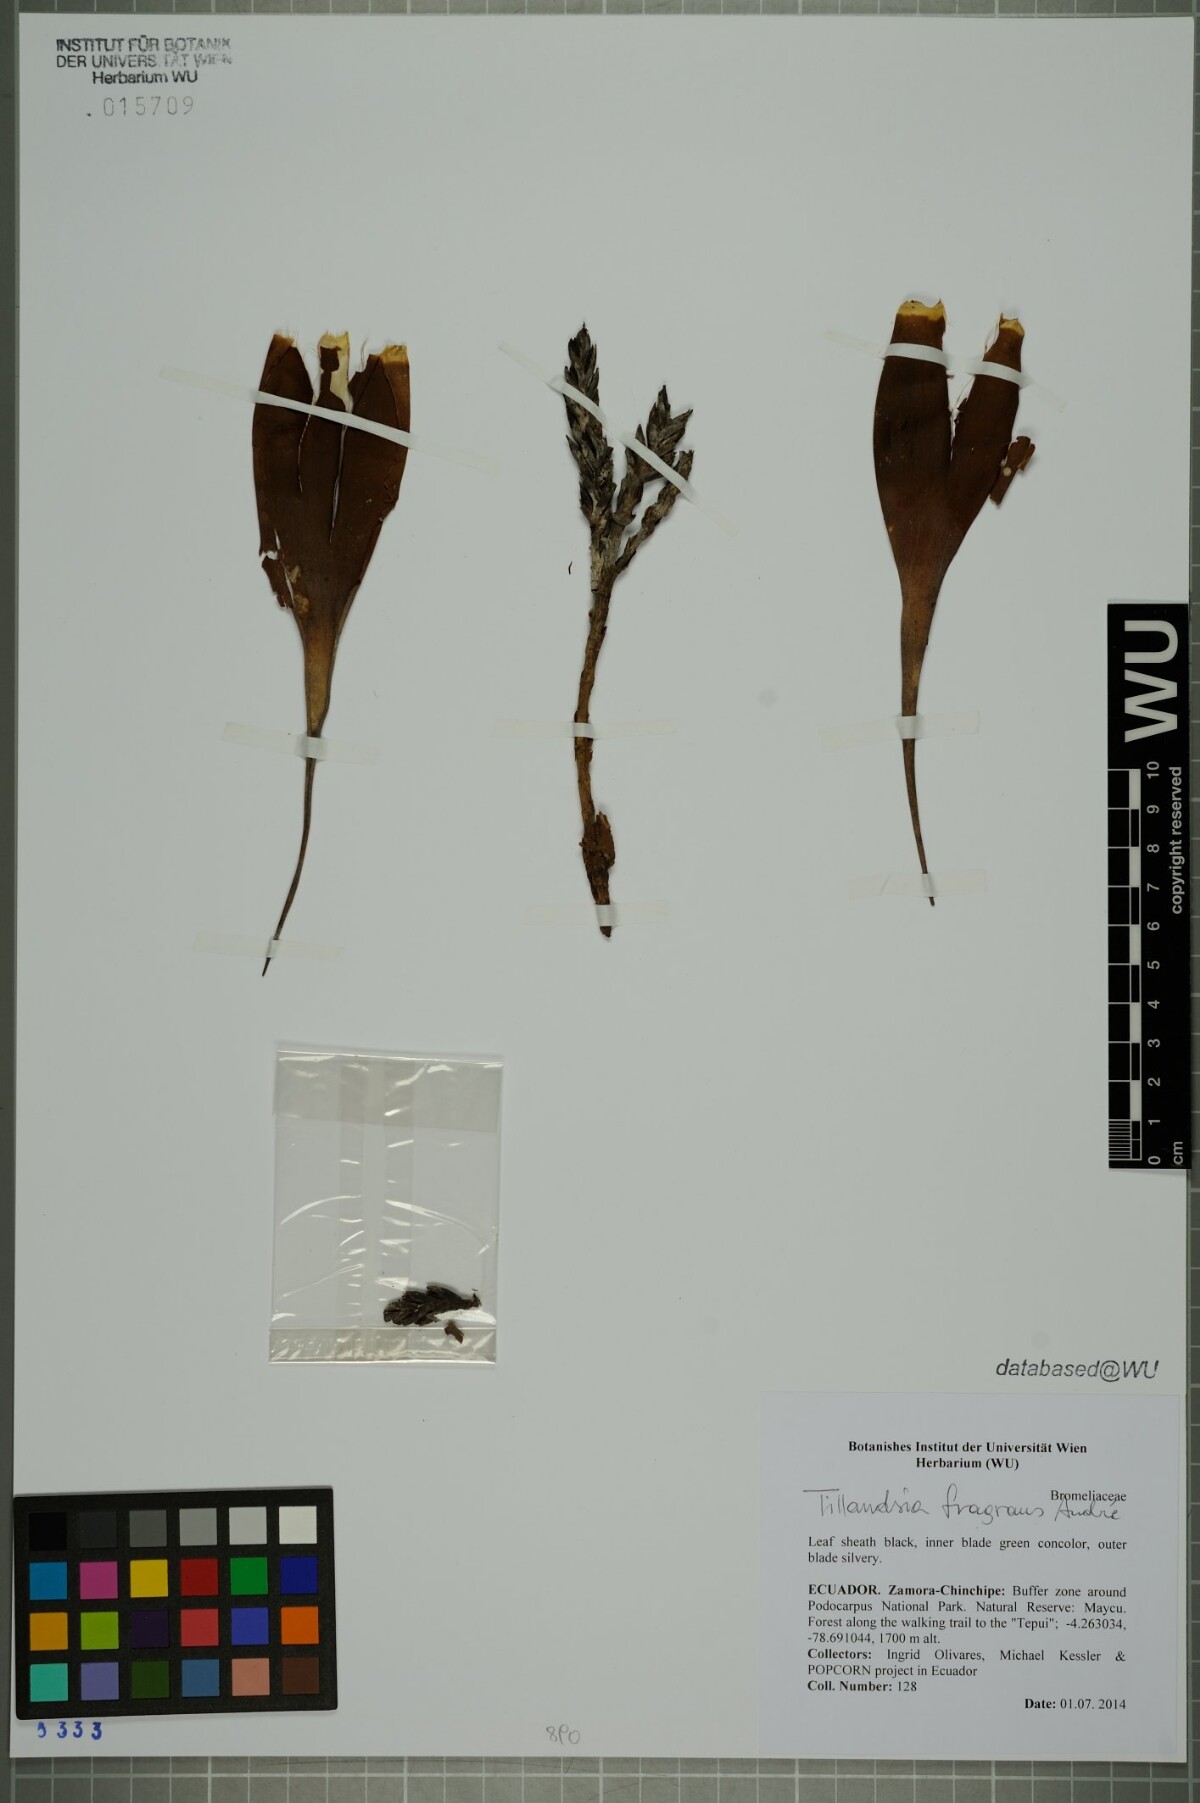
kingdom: Plantae
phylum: Tracheophyta
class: Liliopsida
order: Poales
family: Bromeliaceae
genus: Tillandsia
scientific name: Tillandsia fragrans
